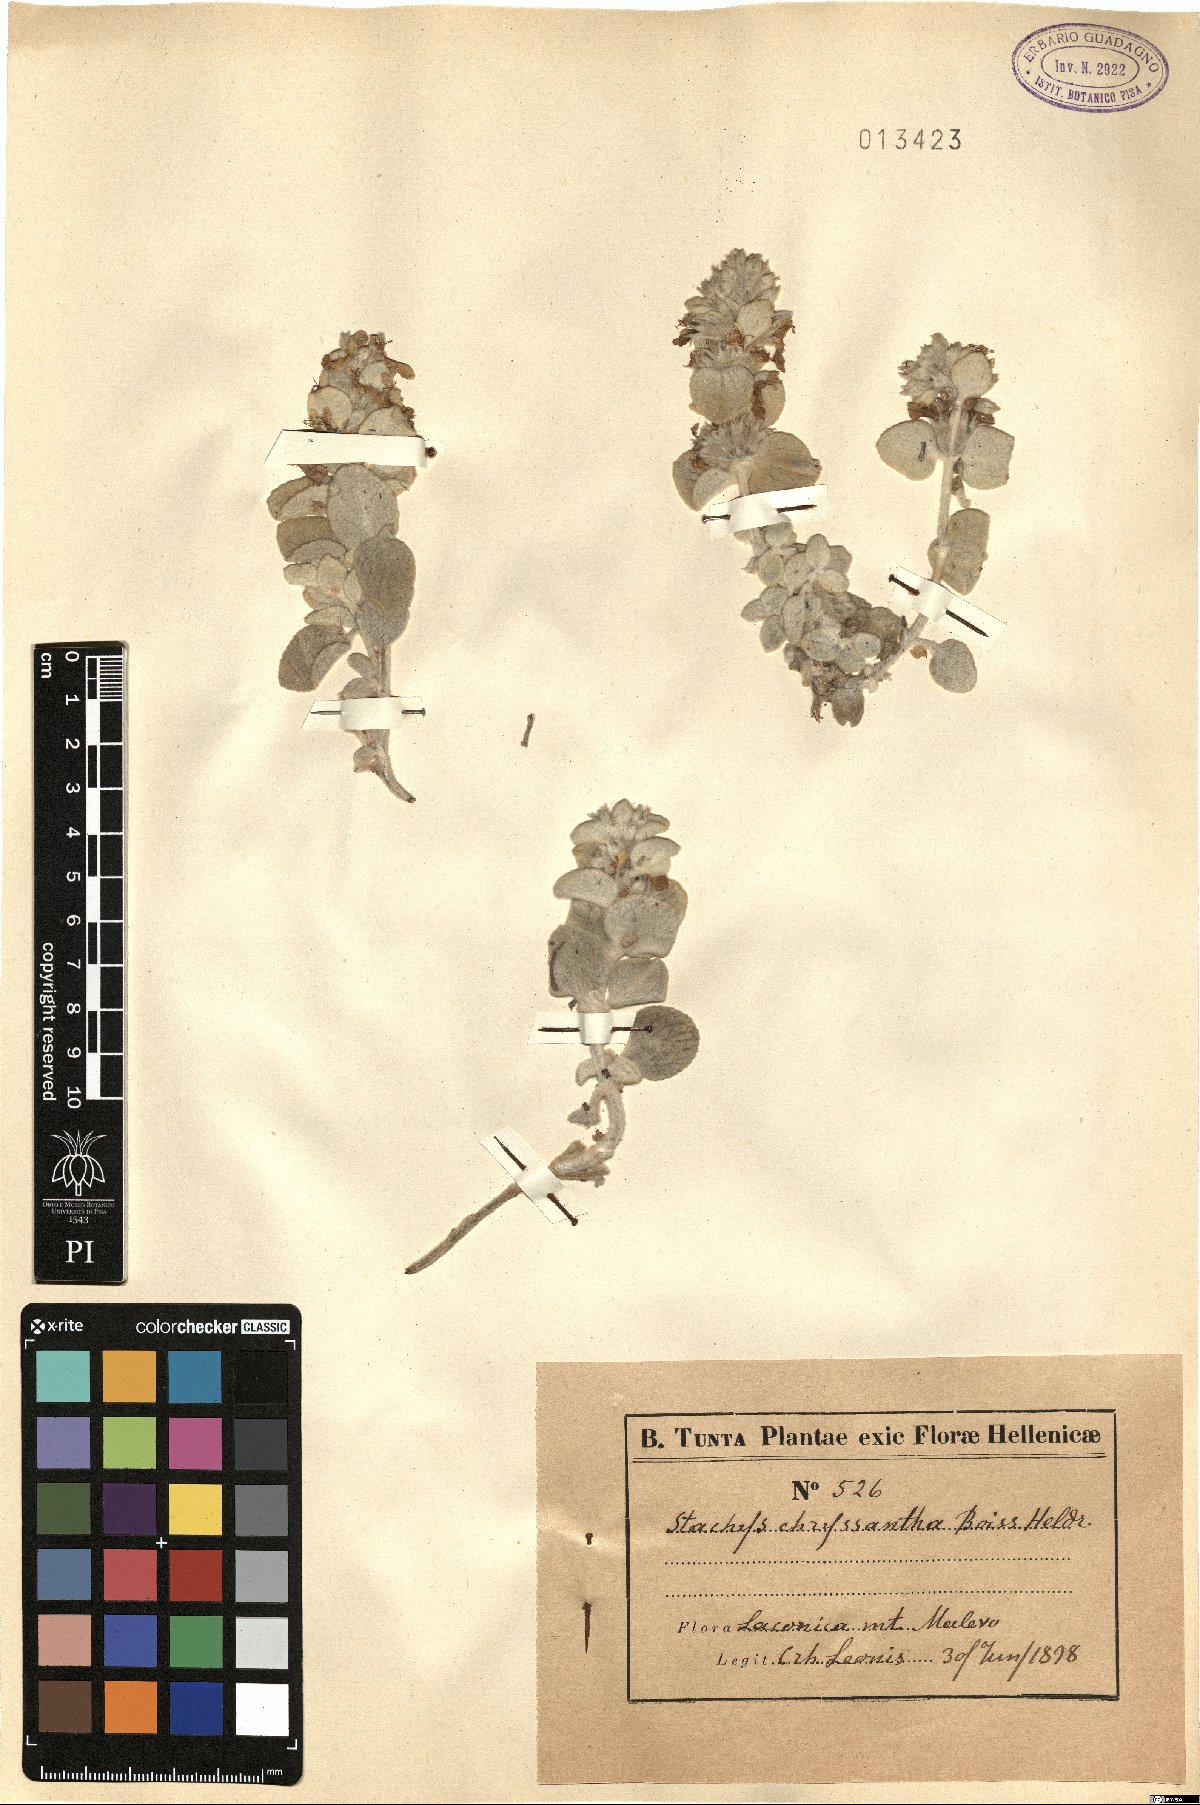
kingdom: Plantae
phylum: Tracheophyta
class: Magnoliopsida
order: Lamiales
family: Lamiaceae
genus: Stachys
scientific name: Stachys chrysantha
